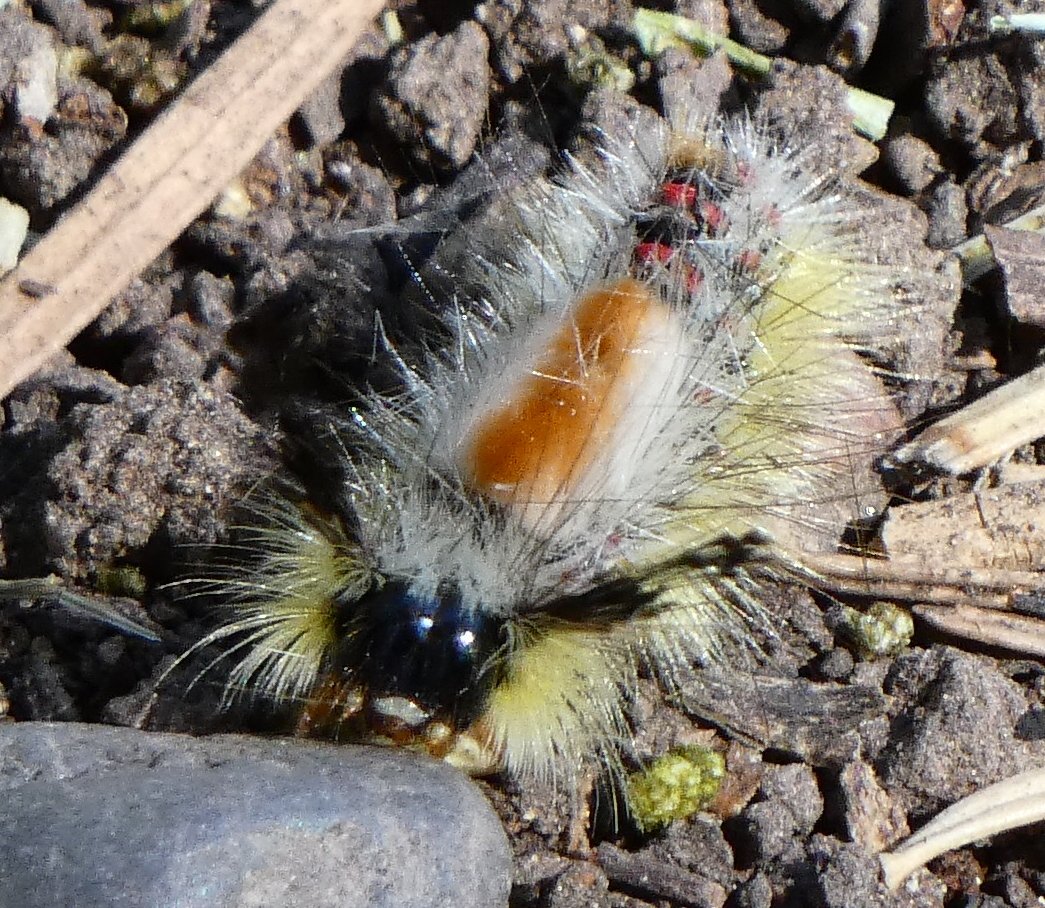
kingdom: Animalia
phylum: Arthropoda
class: Insecta
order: Lepidoptera
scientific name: Lepidoptera
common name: Butterflies
